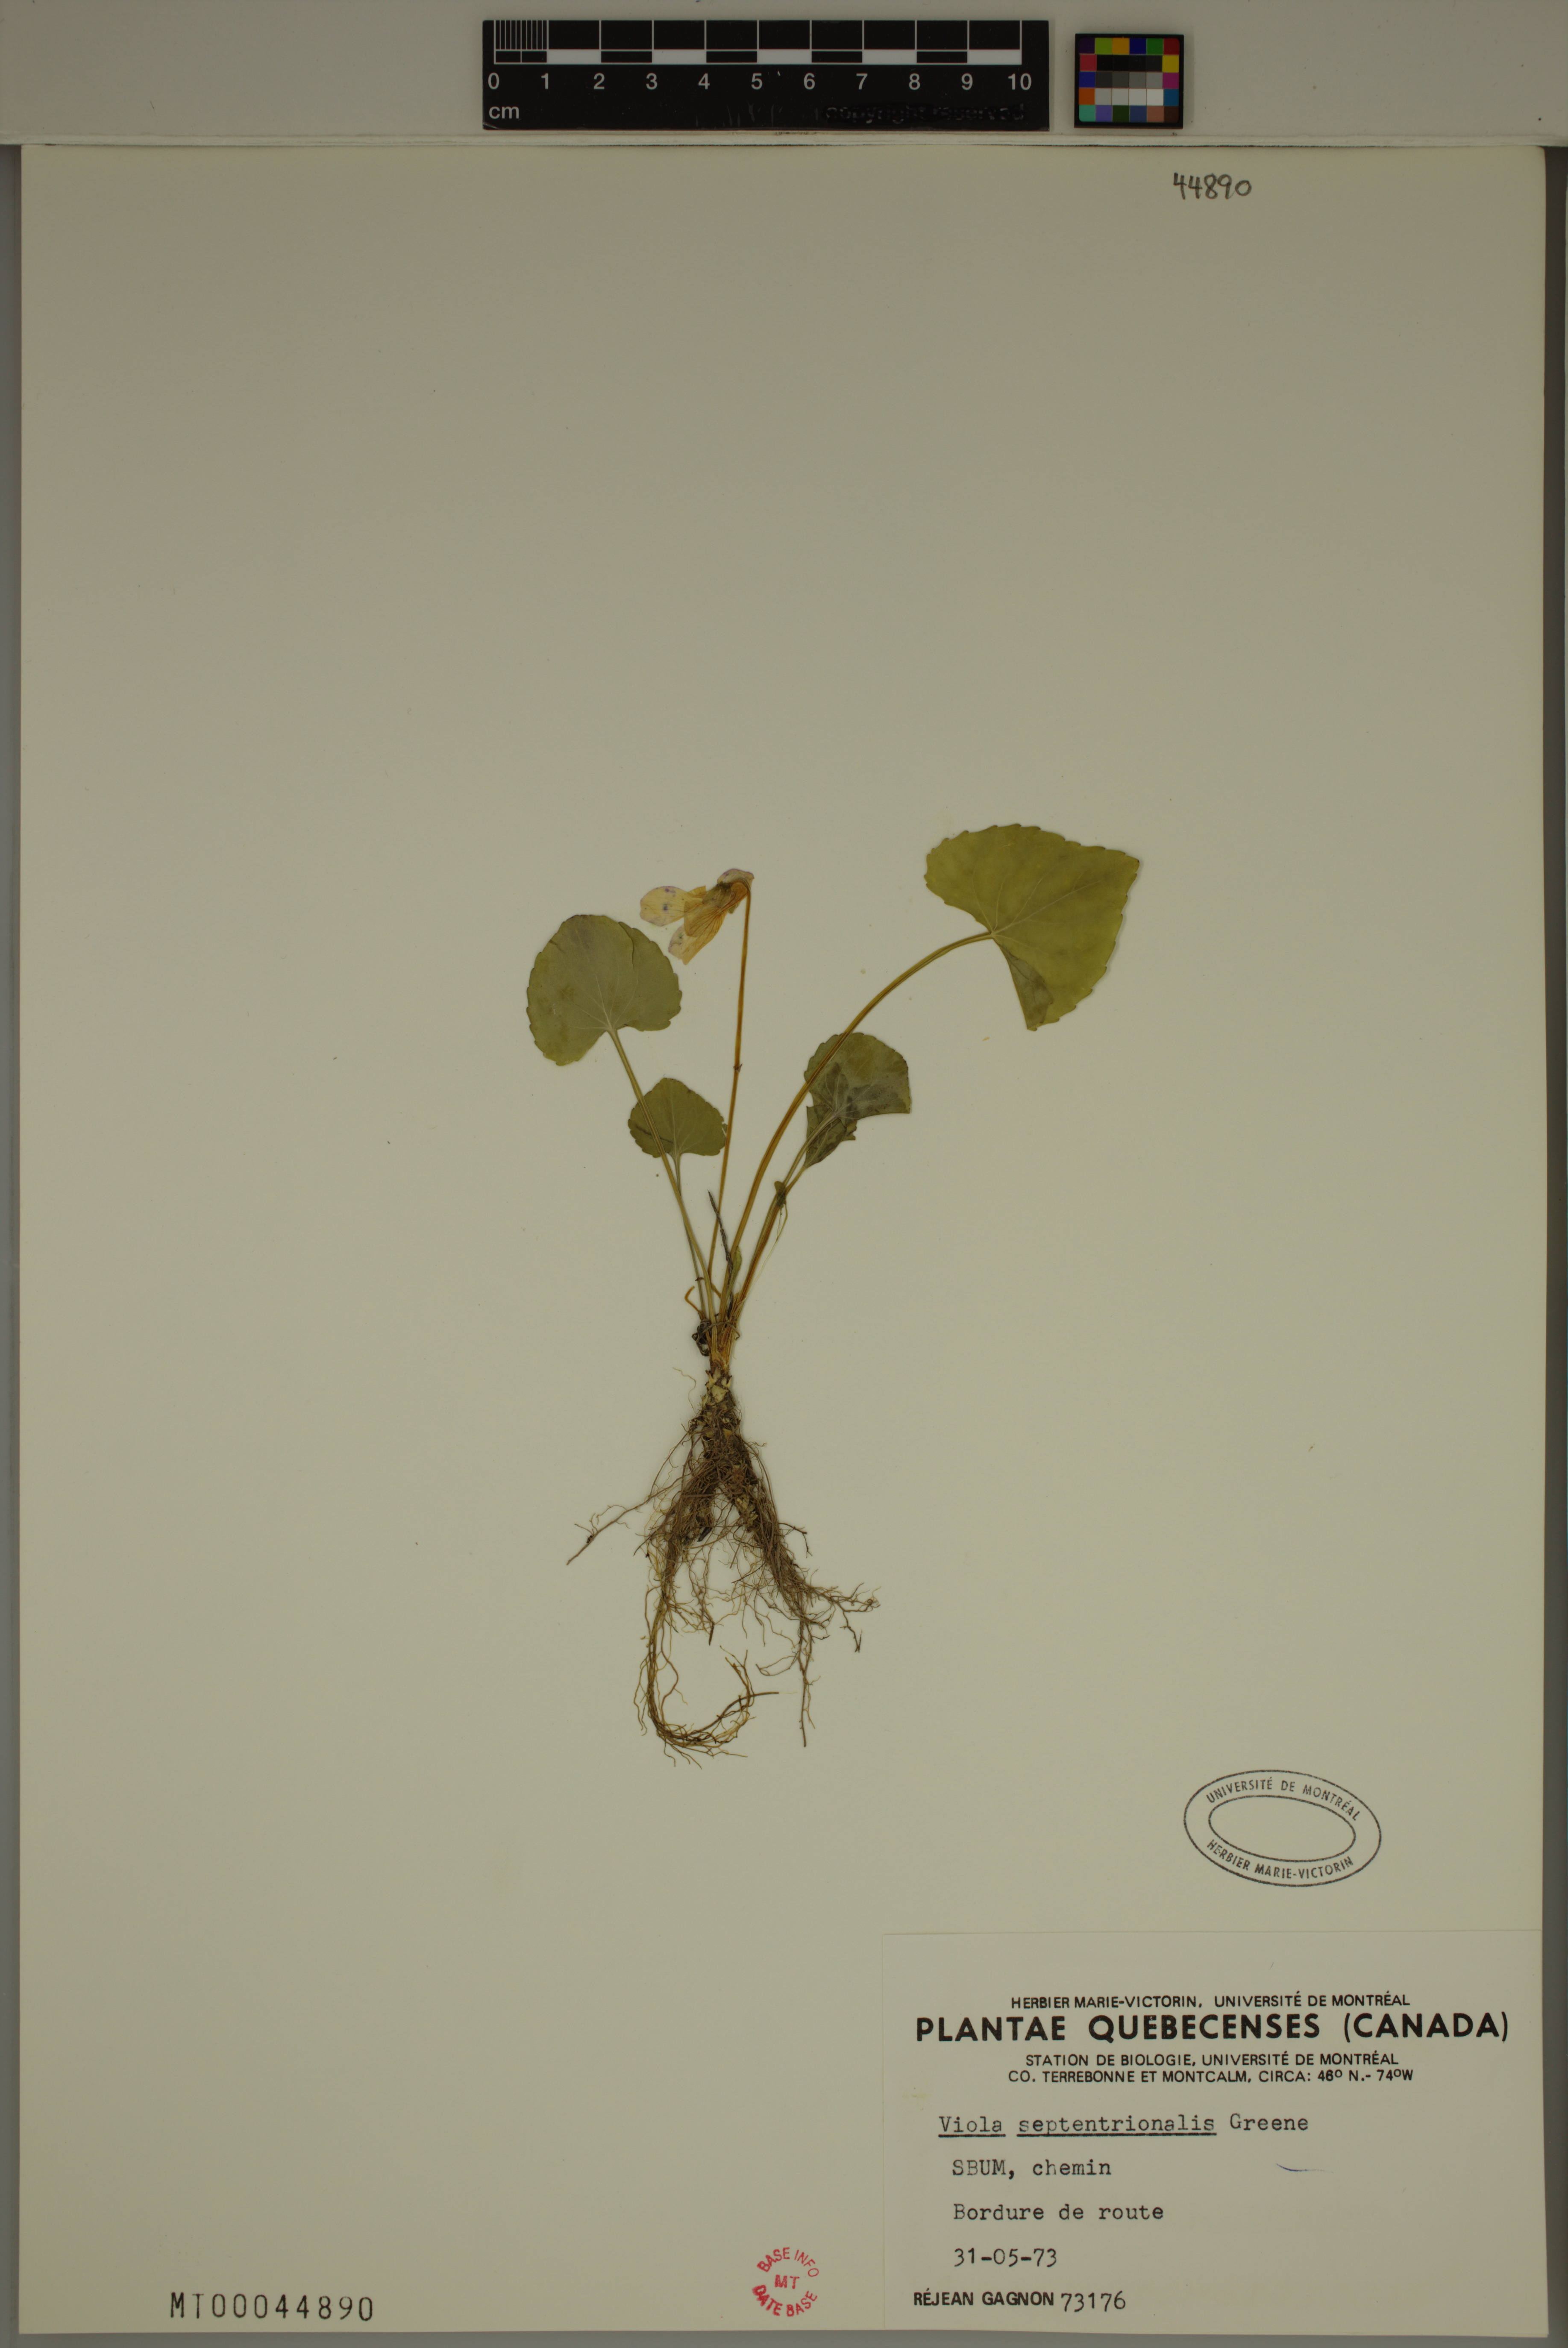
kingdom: Plantae
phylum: Tracheophyta
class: Magnoliopsida
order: Malpighiales
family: Violaceae
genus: Viola
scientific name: Viola sororia
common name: Dooryard violet
